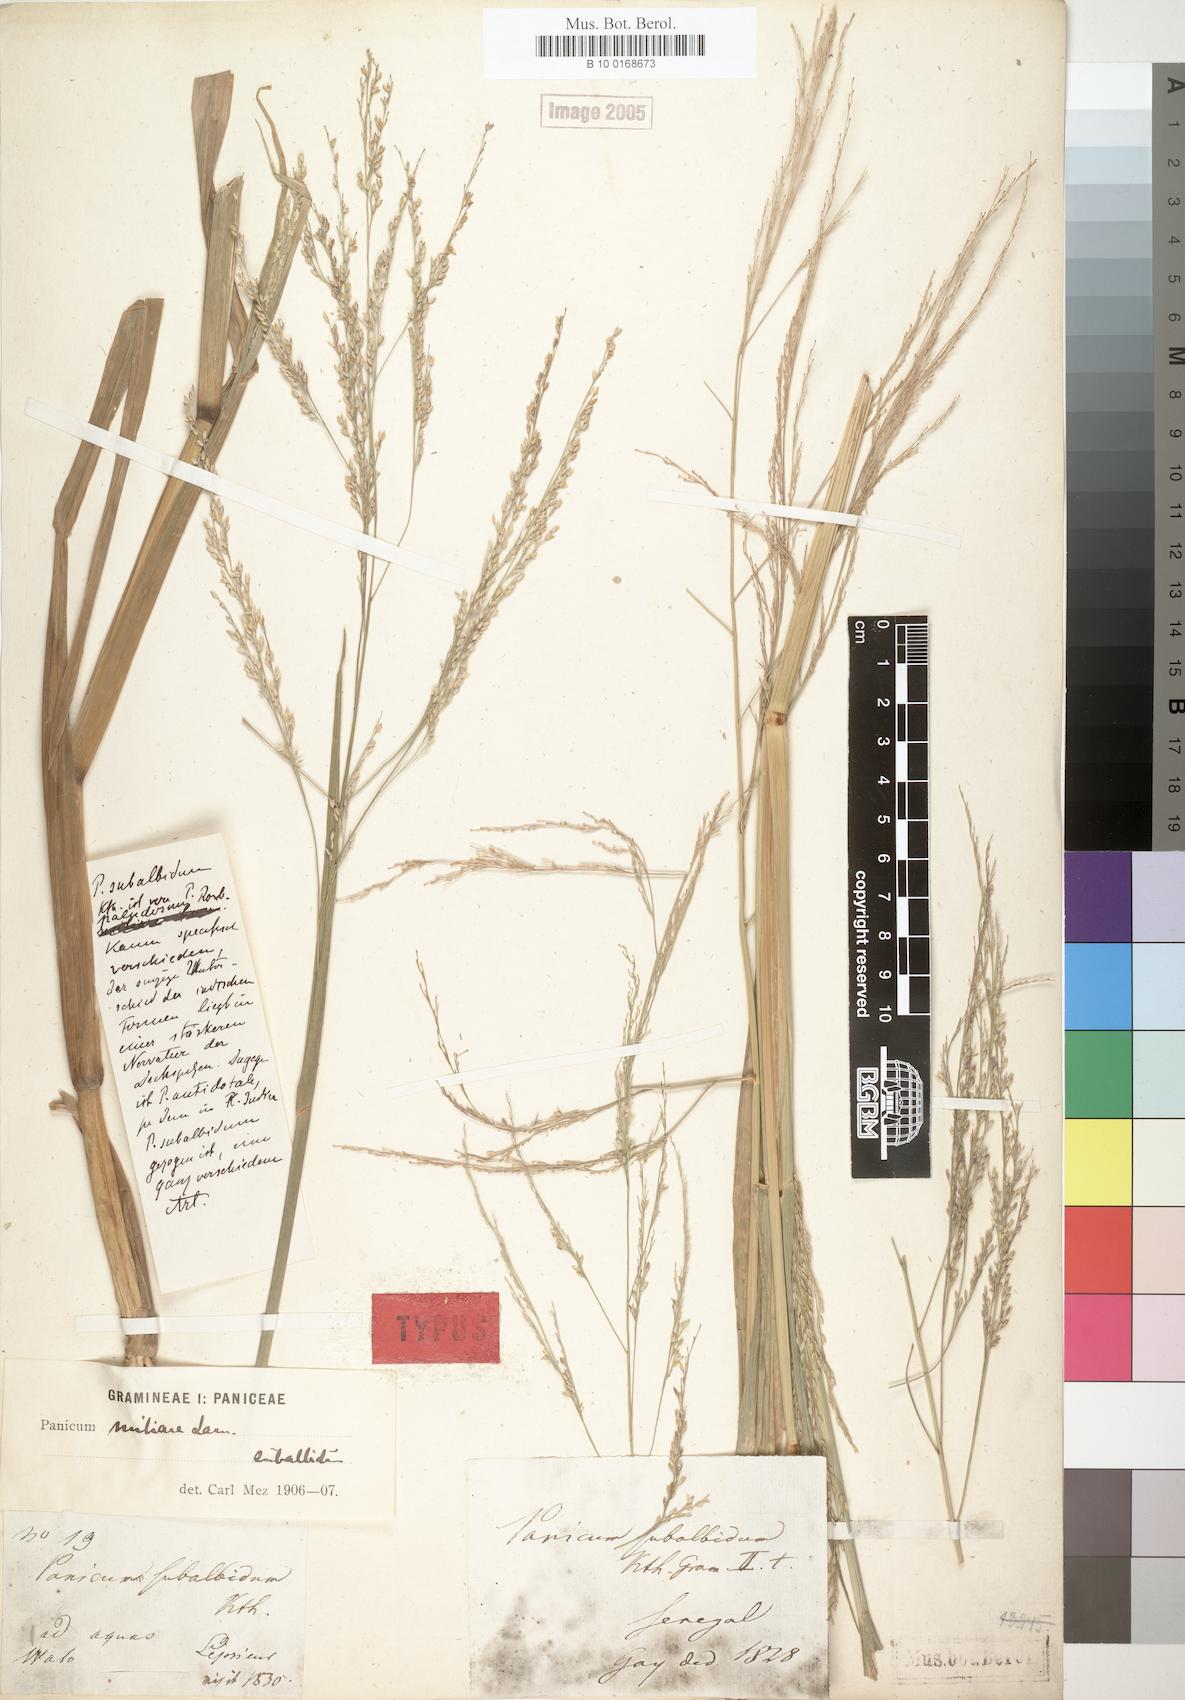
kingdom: Plantae
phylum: Tracheophyta
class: Liliopsida
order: Poales
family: Poaceae
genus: Panicum
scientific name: Panicum subalbidum
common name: Elbow buffalo grass
